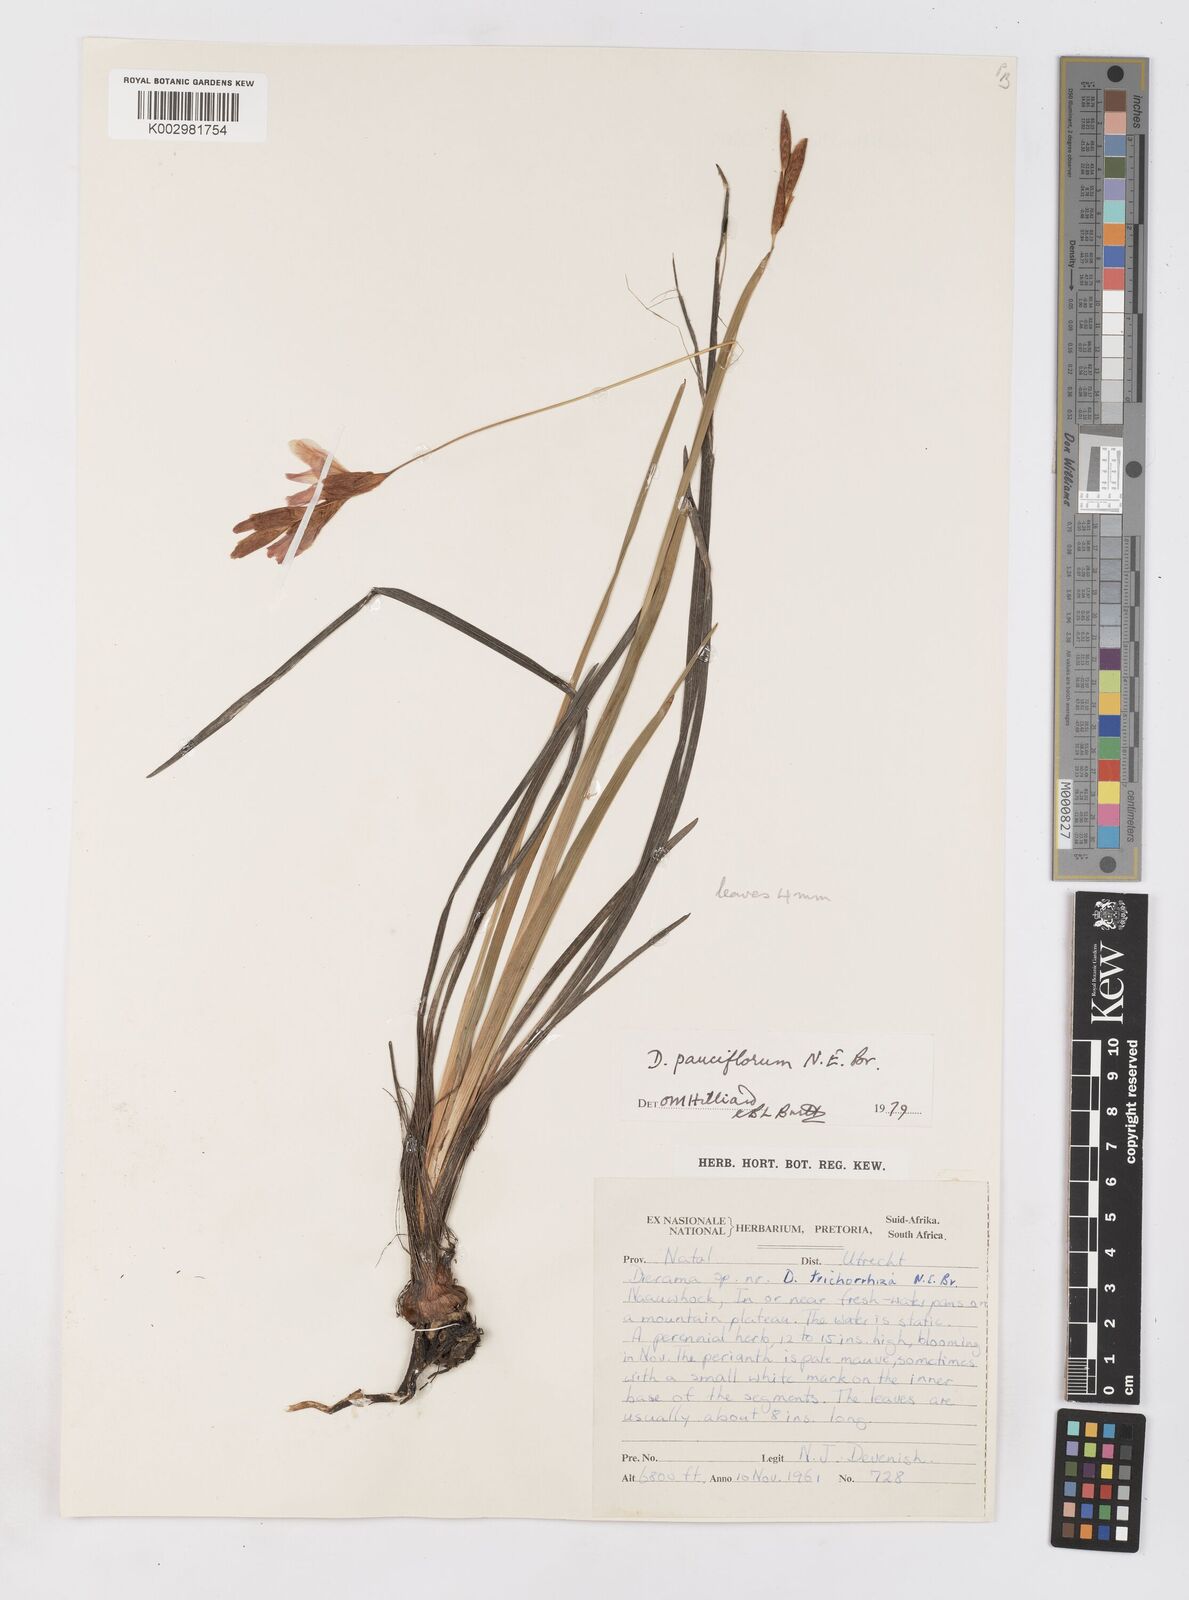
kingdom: Plantae
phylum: Tracheophyta
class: Liliopsida
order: Asparagales
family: Iridaceae
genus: Dierama
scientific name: Dierama pauciflorum
